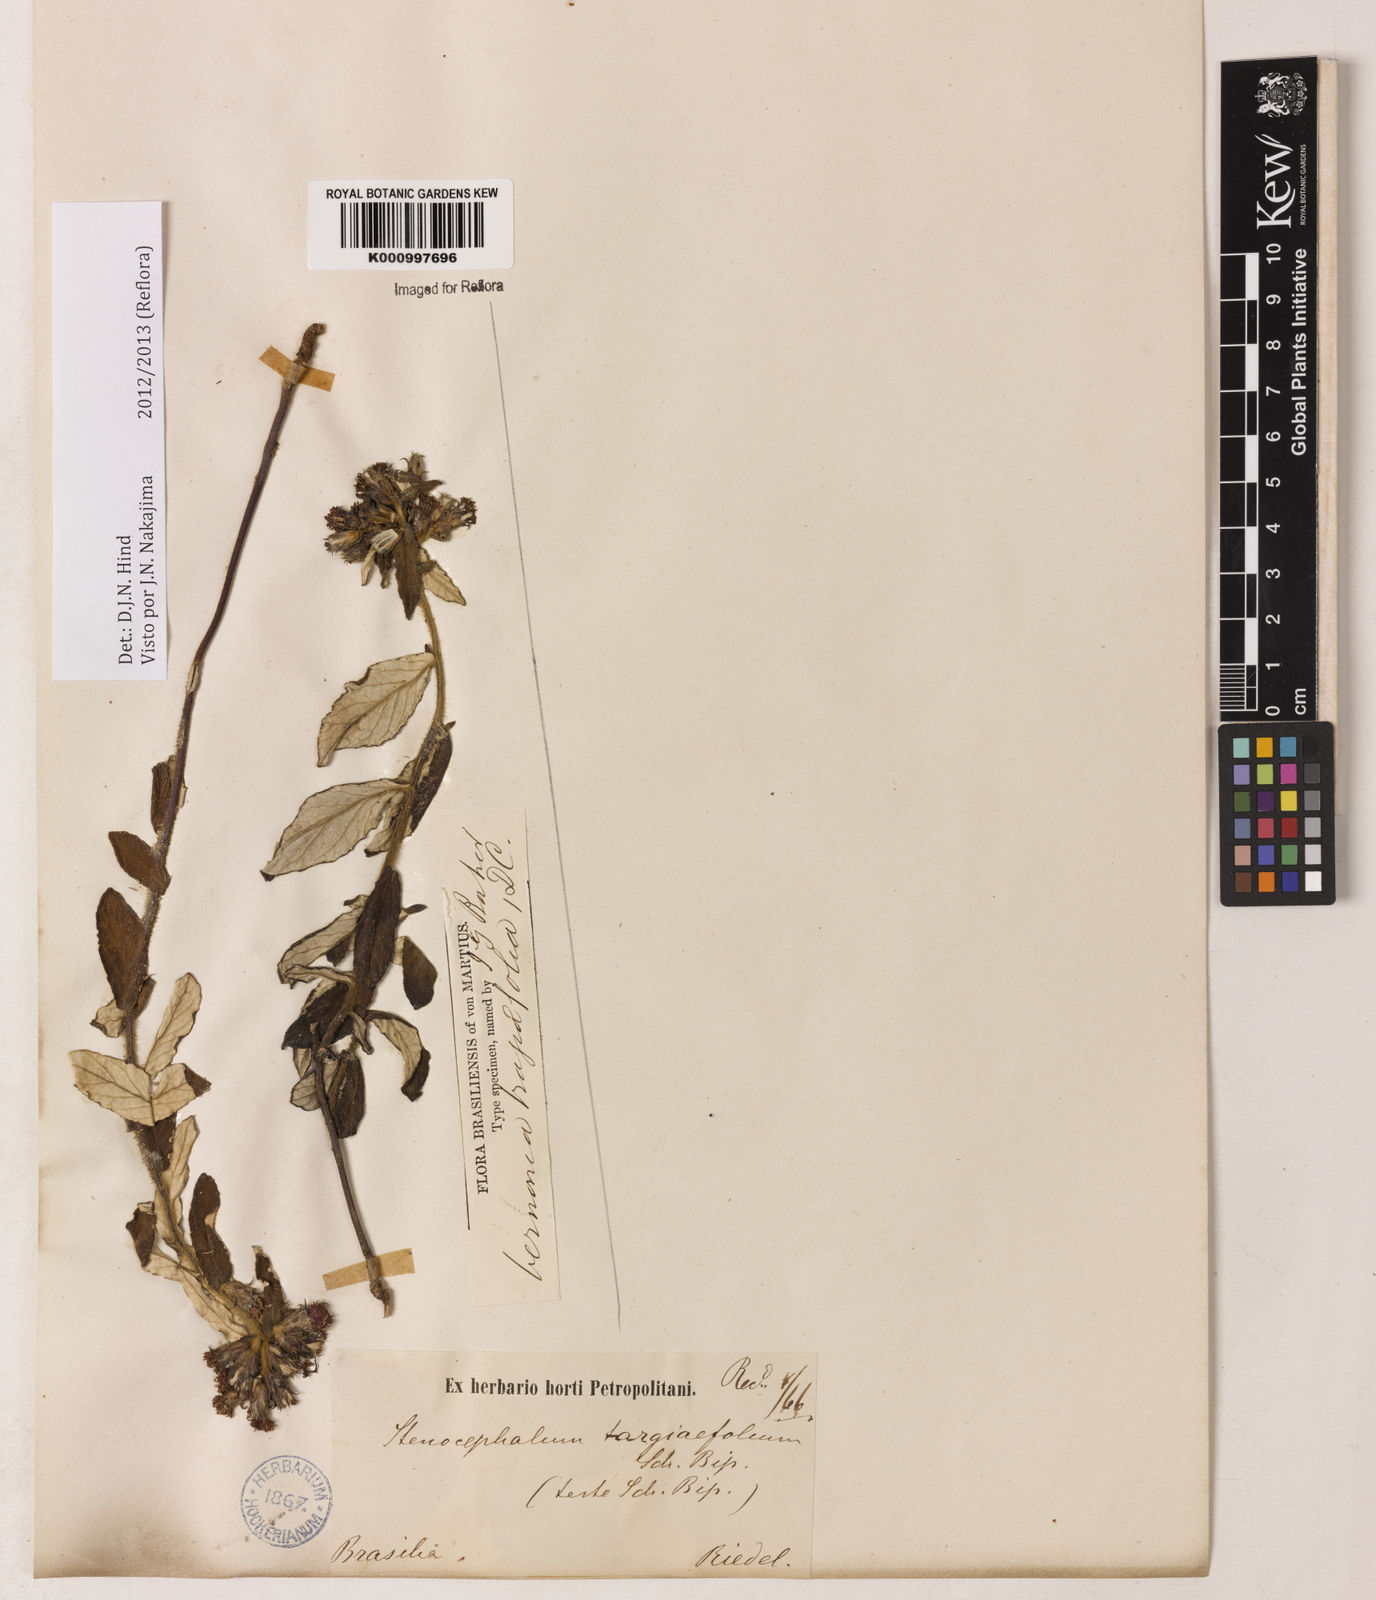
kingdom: Plantae
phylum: Tracheophyta
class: Magnoliopsida
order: Asterales
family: Asteraceae
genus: Vernonia
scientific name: Vernonia
